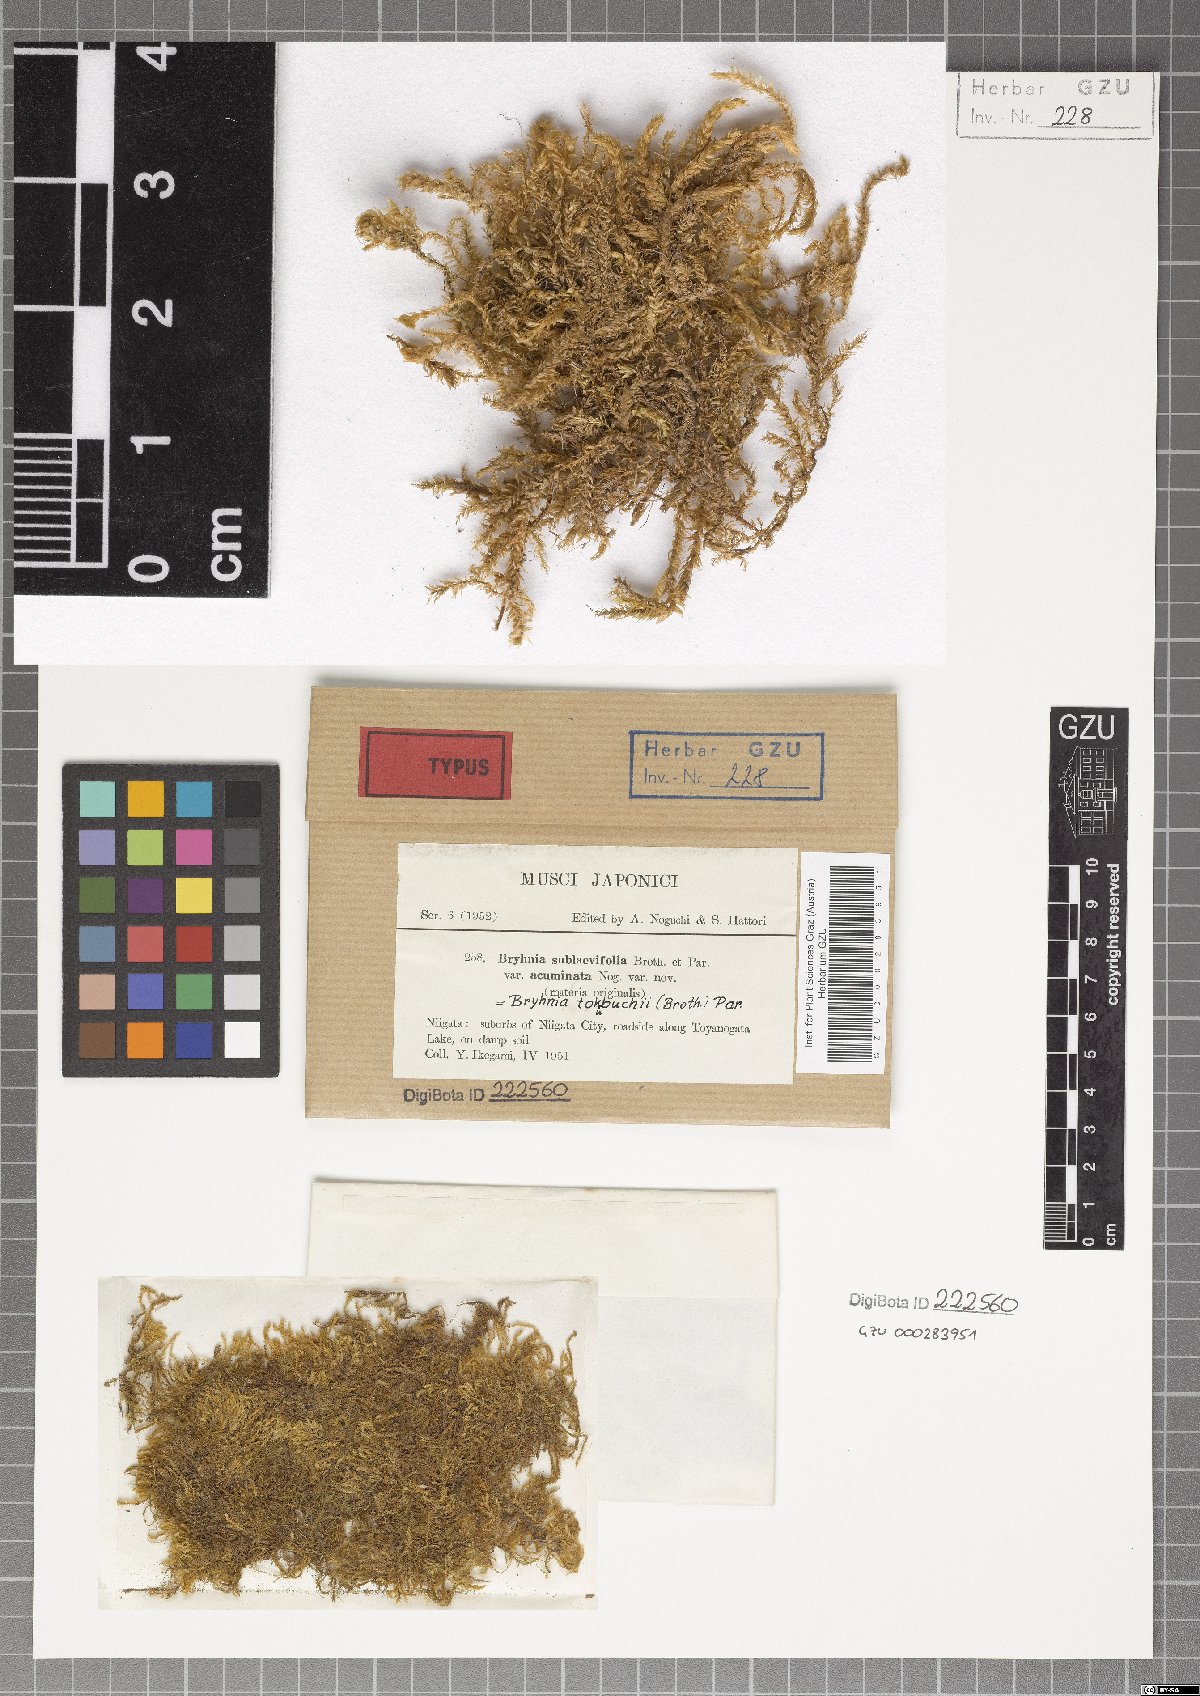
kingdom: Plantae
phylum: Bryophyta
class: Bryopsida
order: Hypnales
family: Brachytheciaceae
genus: Brachythecium
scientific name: Brachythecium noesicum
